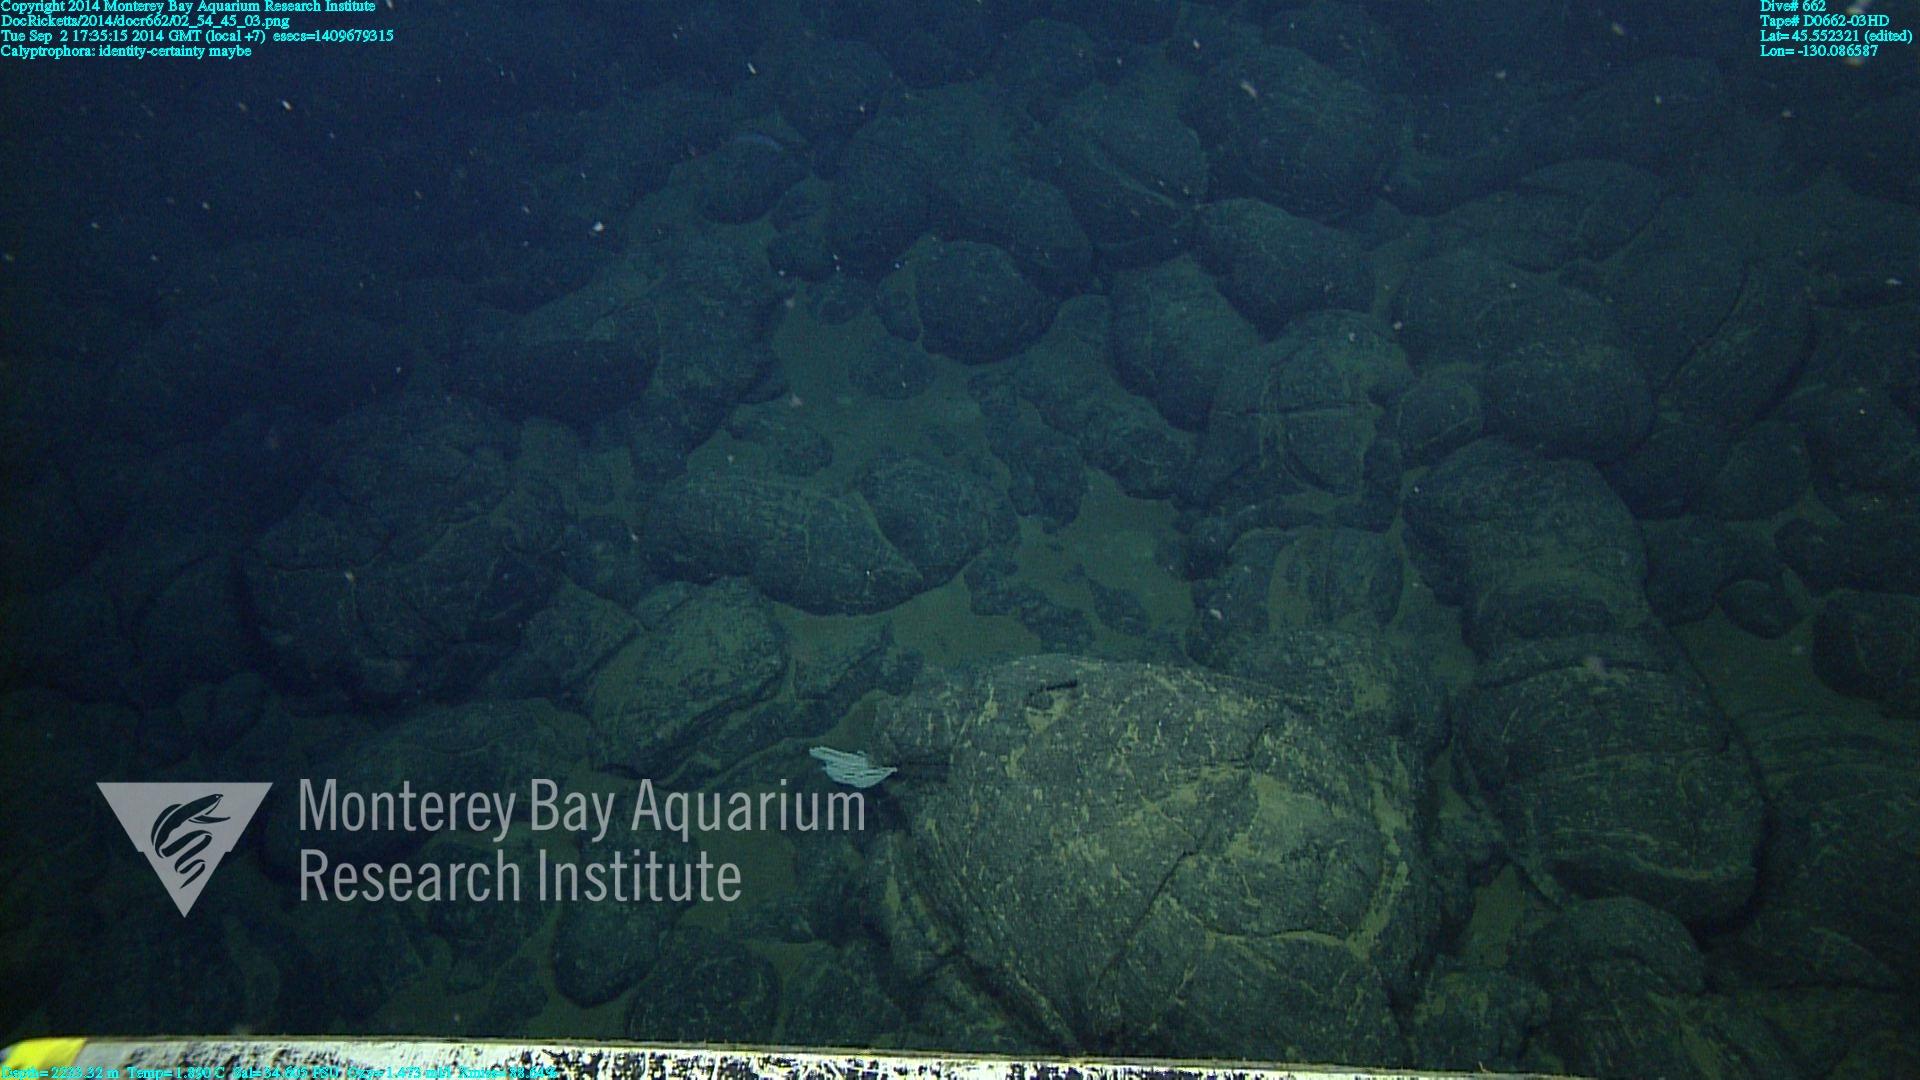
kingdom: Animalia
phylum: Cnidaria
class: Anthozoa
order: Scleralcyonacea
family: Primnoidae
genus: Calyptrophora
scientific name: Calyptrophora
